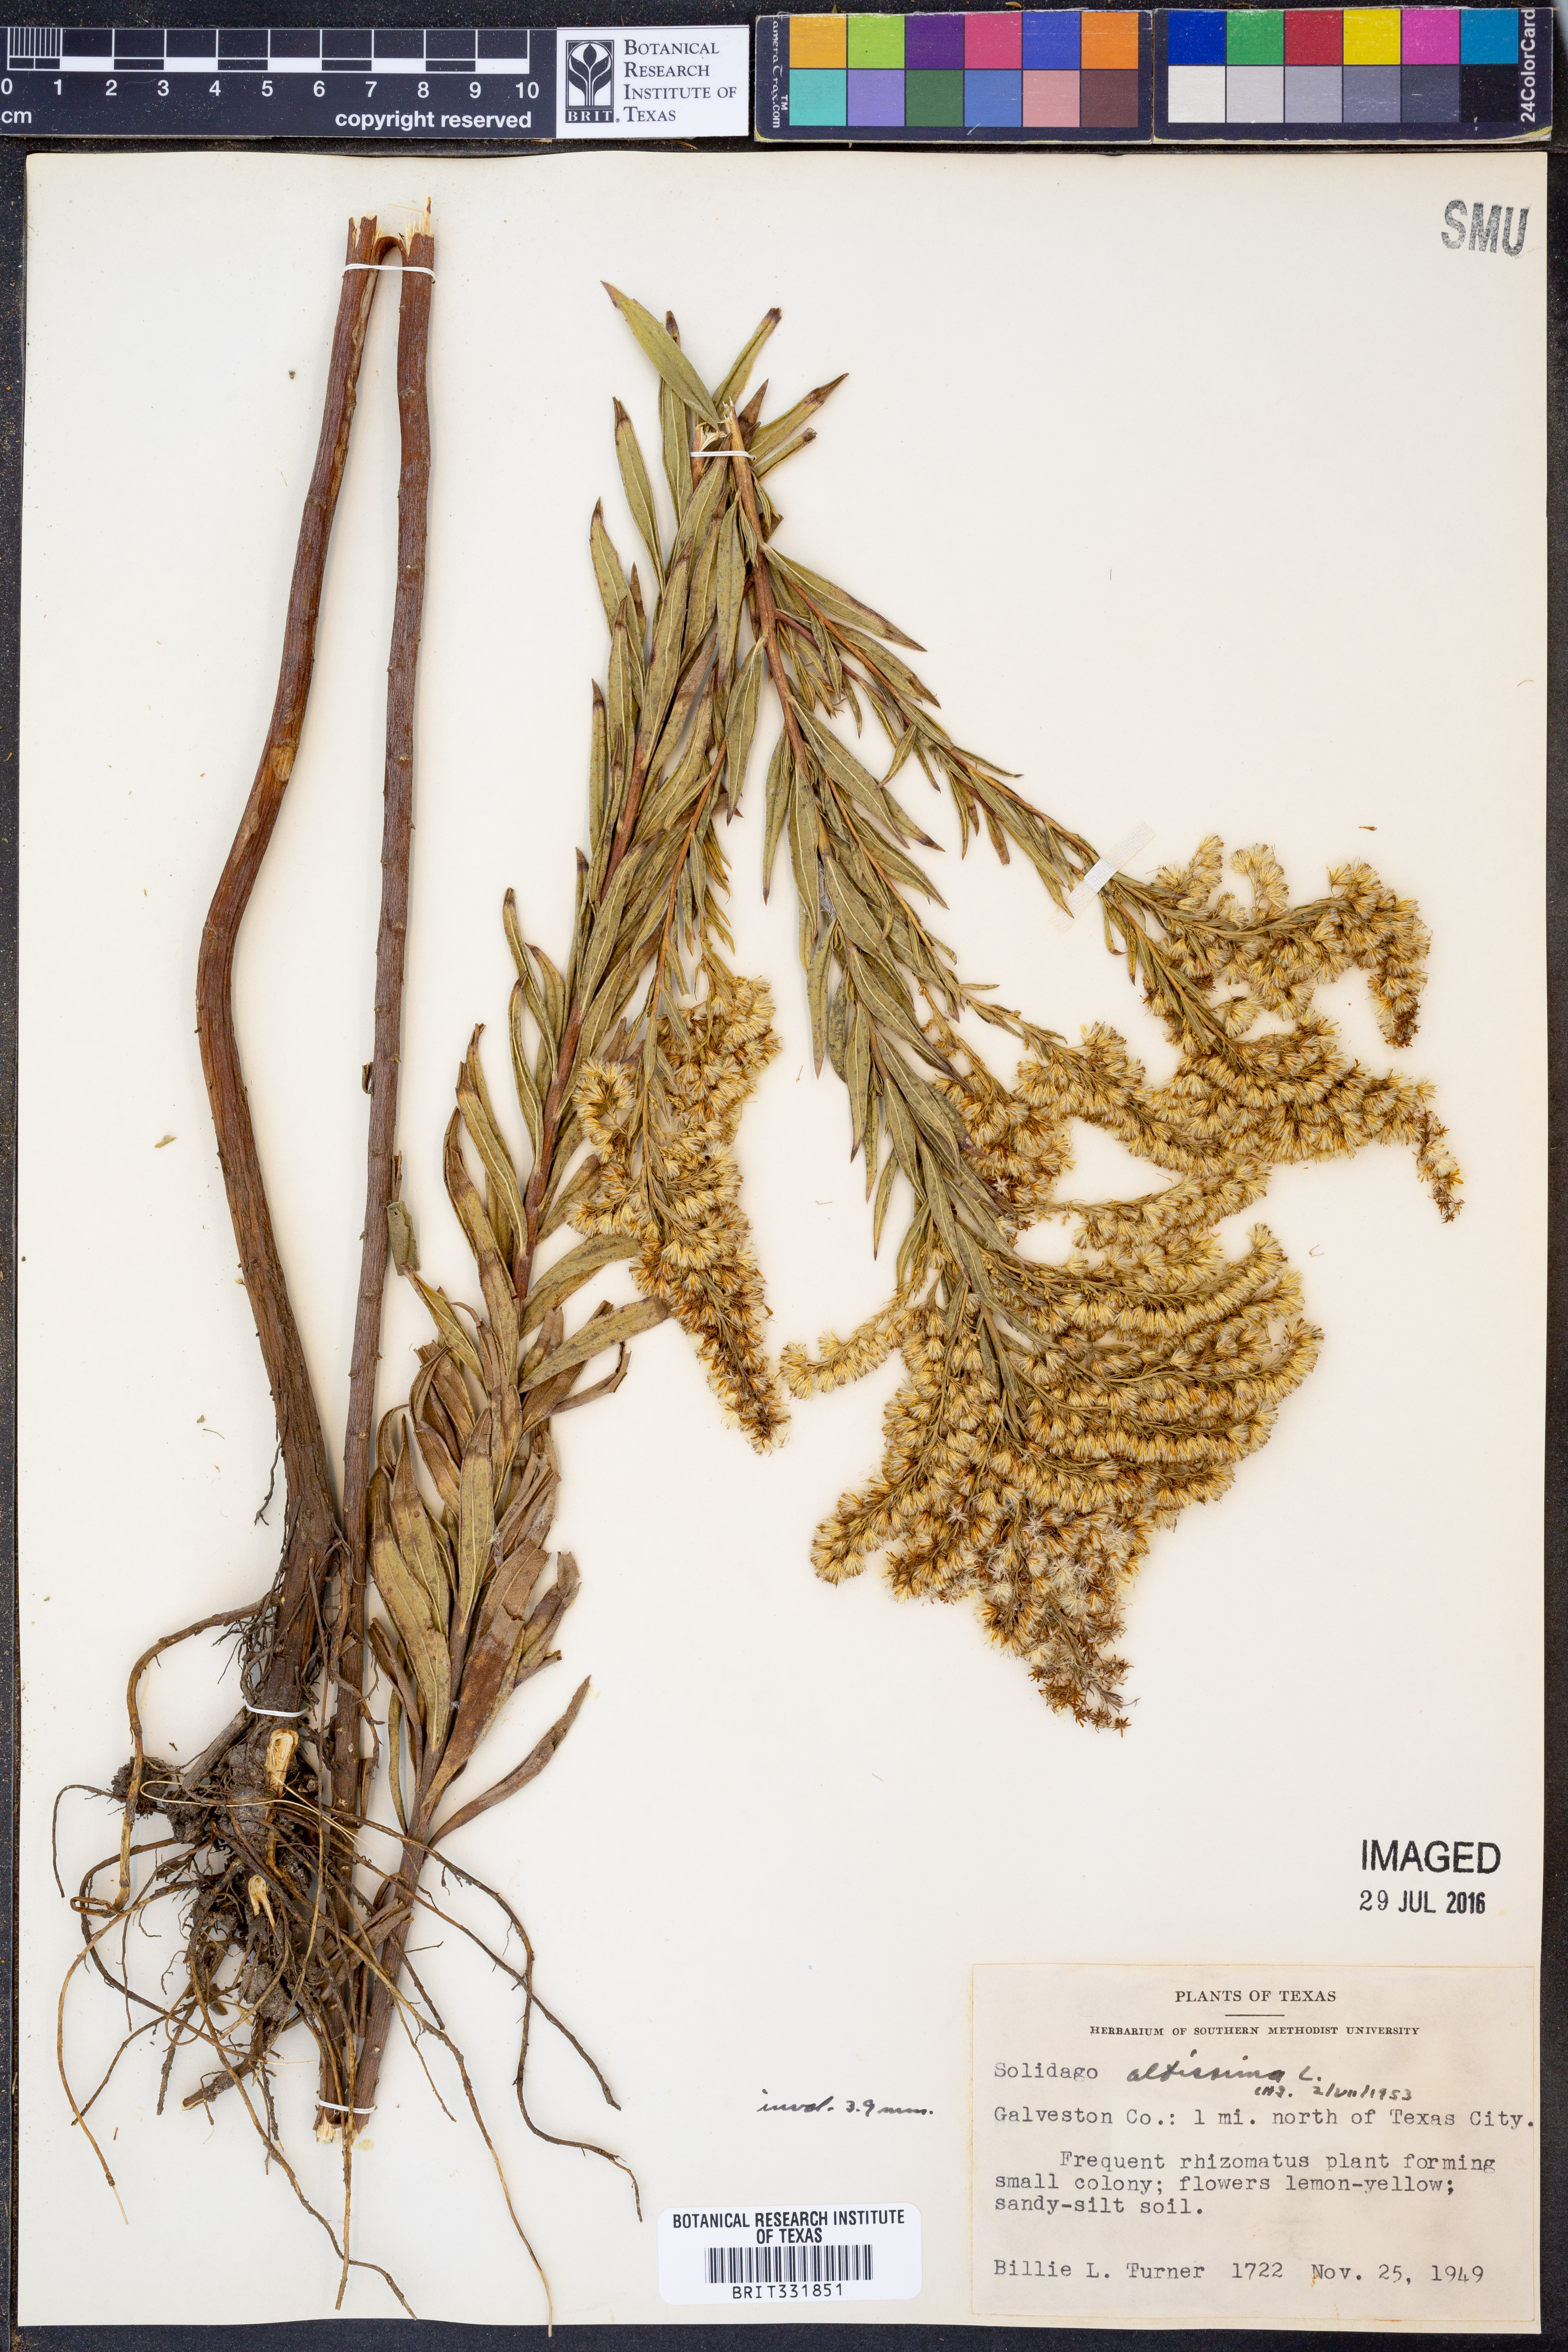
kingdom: Plantae
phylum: Tracheophyta
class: Magnoliopsida
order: Asterales
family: Asteraceae
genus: Solidago
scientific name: Solidago altissima
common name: Late goldenrod
